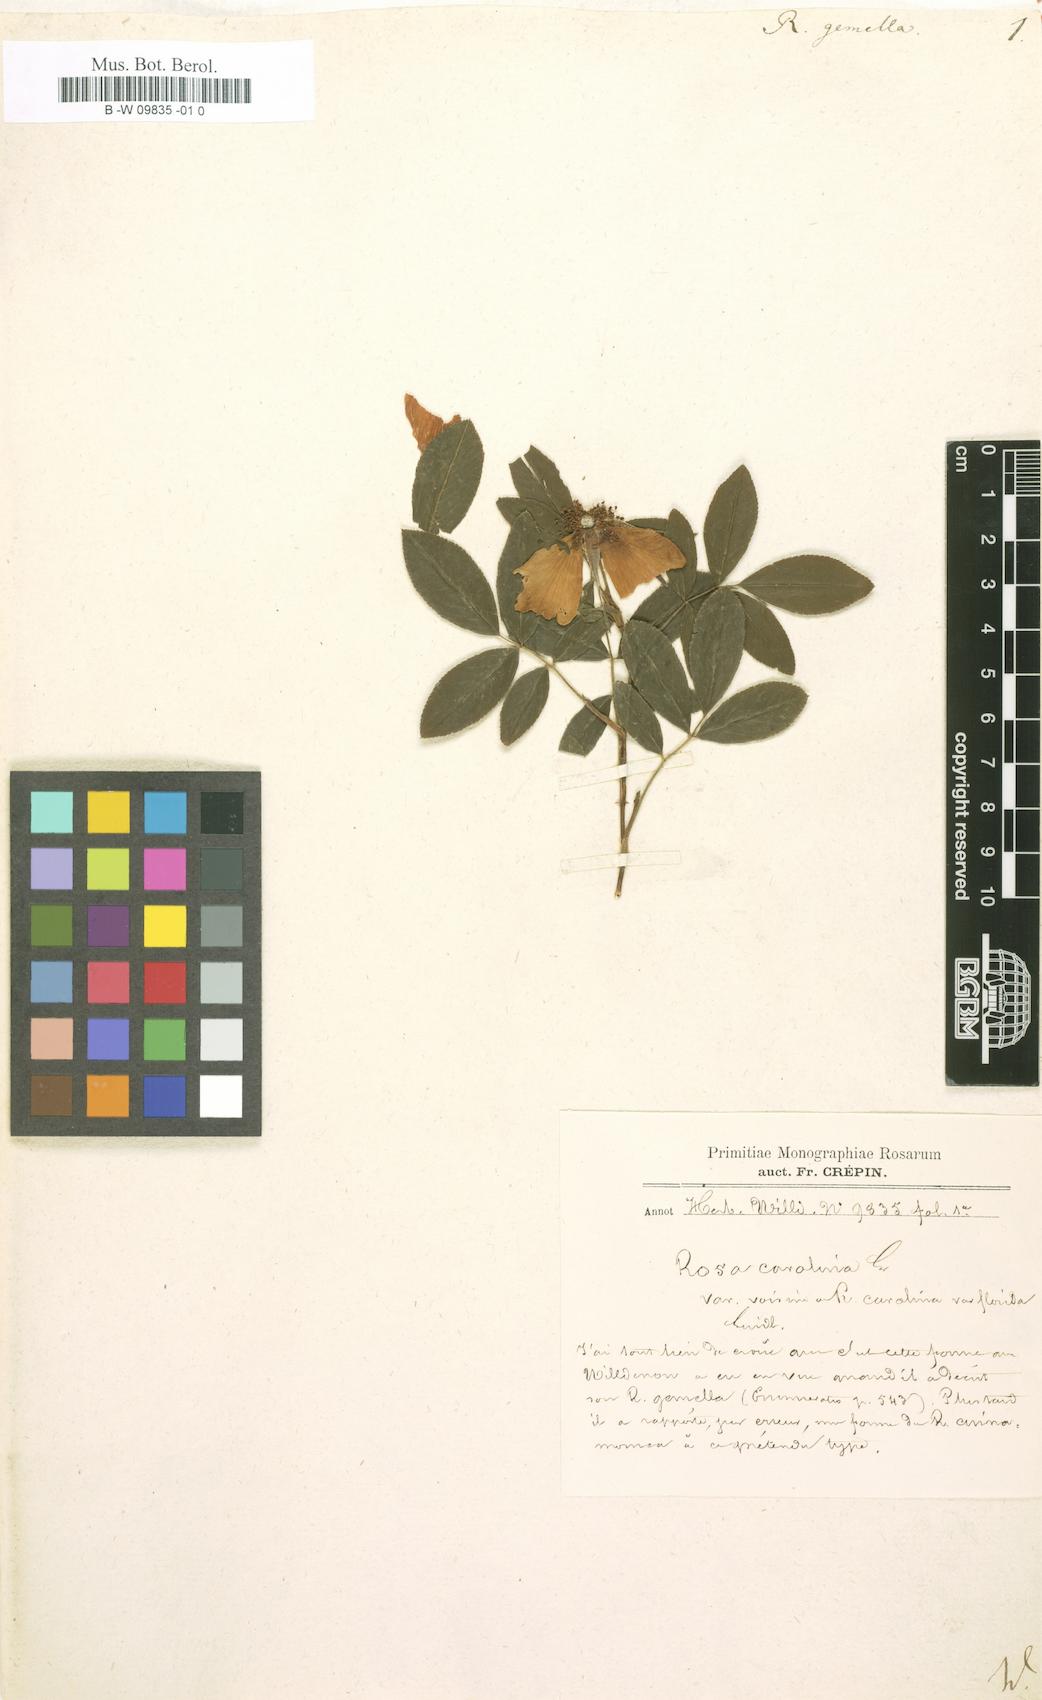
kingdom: Plantae
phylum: Tracheophyta
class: Magnoliopsida
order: Rosales
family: Rosaceae
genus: Rosa
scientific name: Rosa
